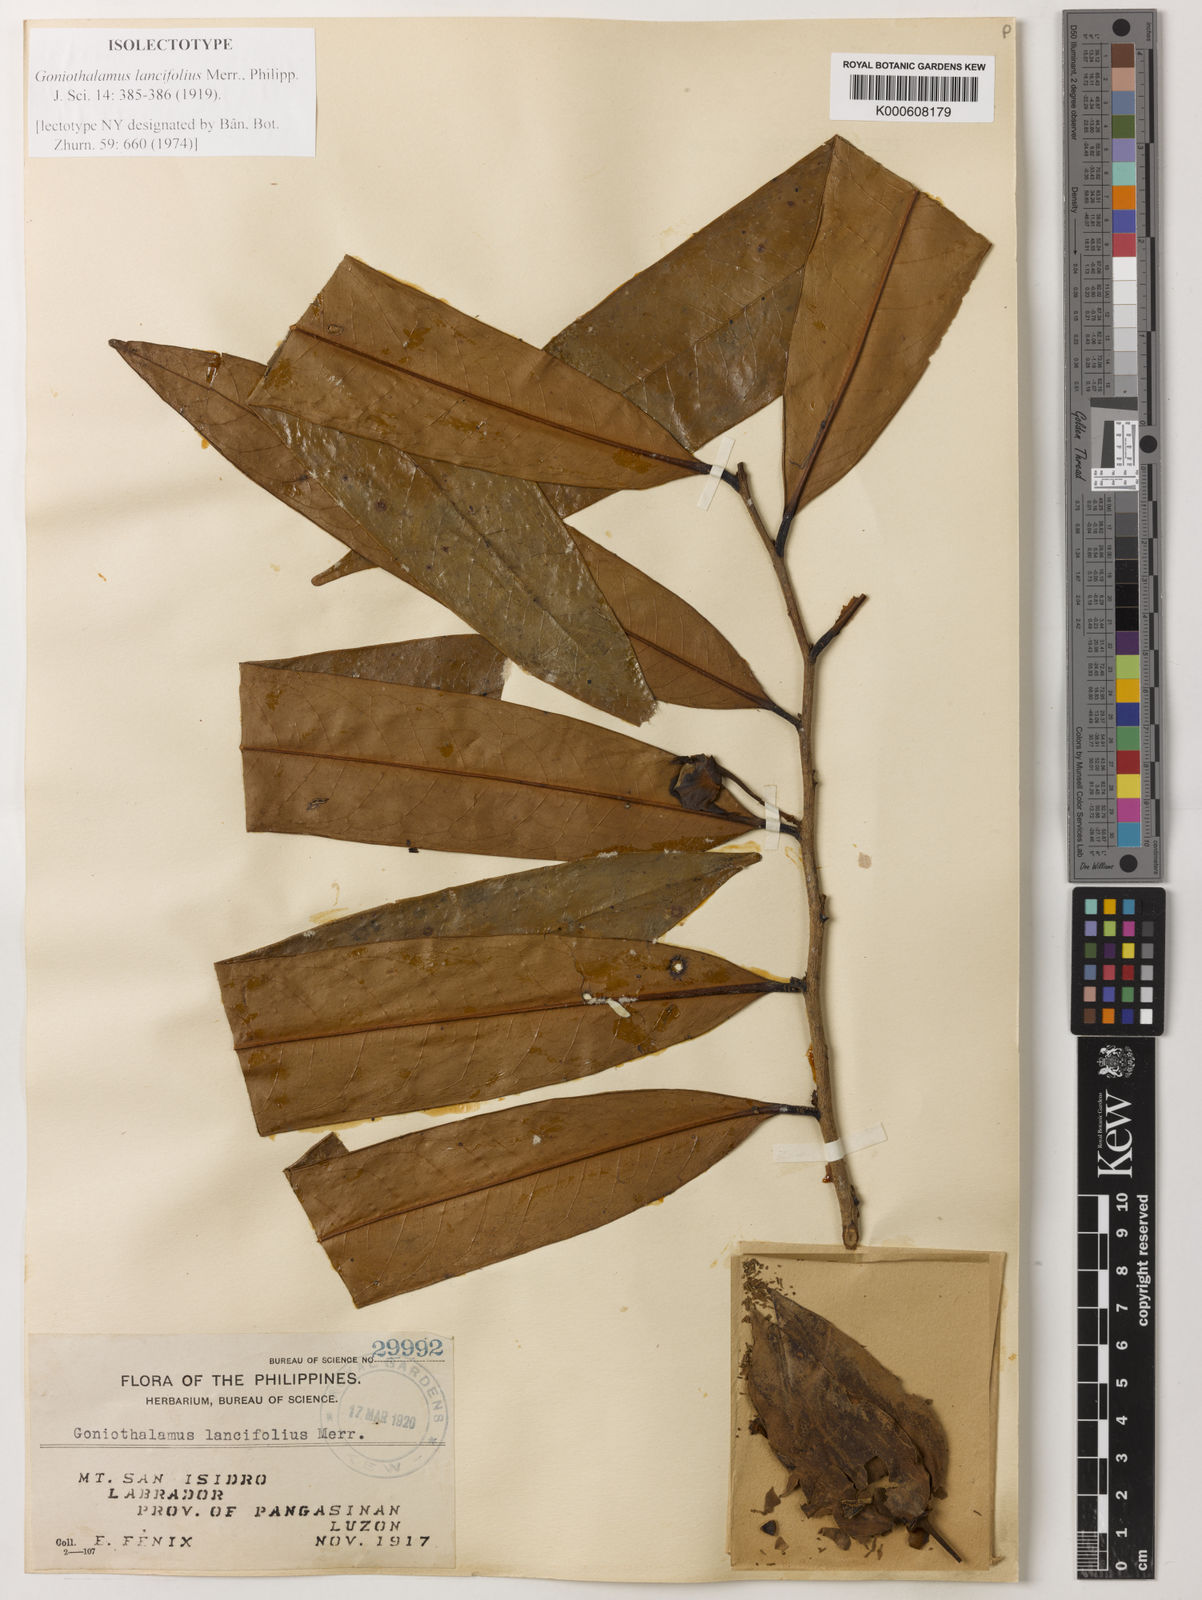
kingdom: Plantae
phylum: Tracheophyta
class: Magnoliopsida
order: Magnoliales
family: Annonaceae
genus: Goniothalamus
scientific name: Goniothalamus lancifolius
